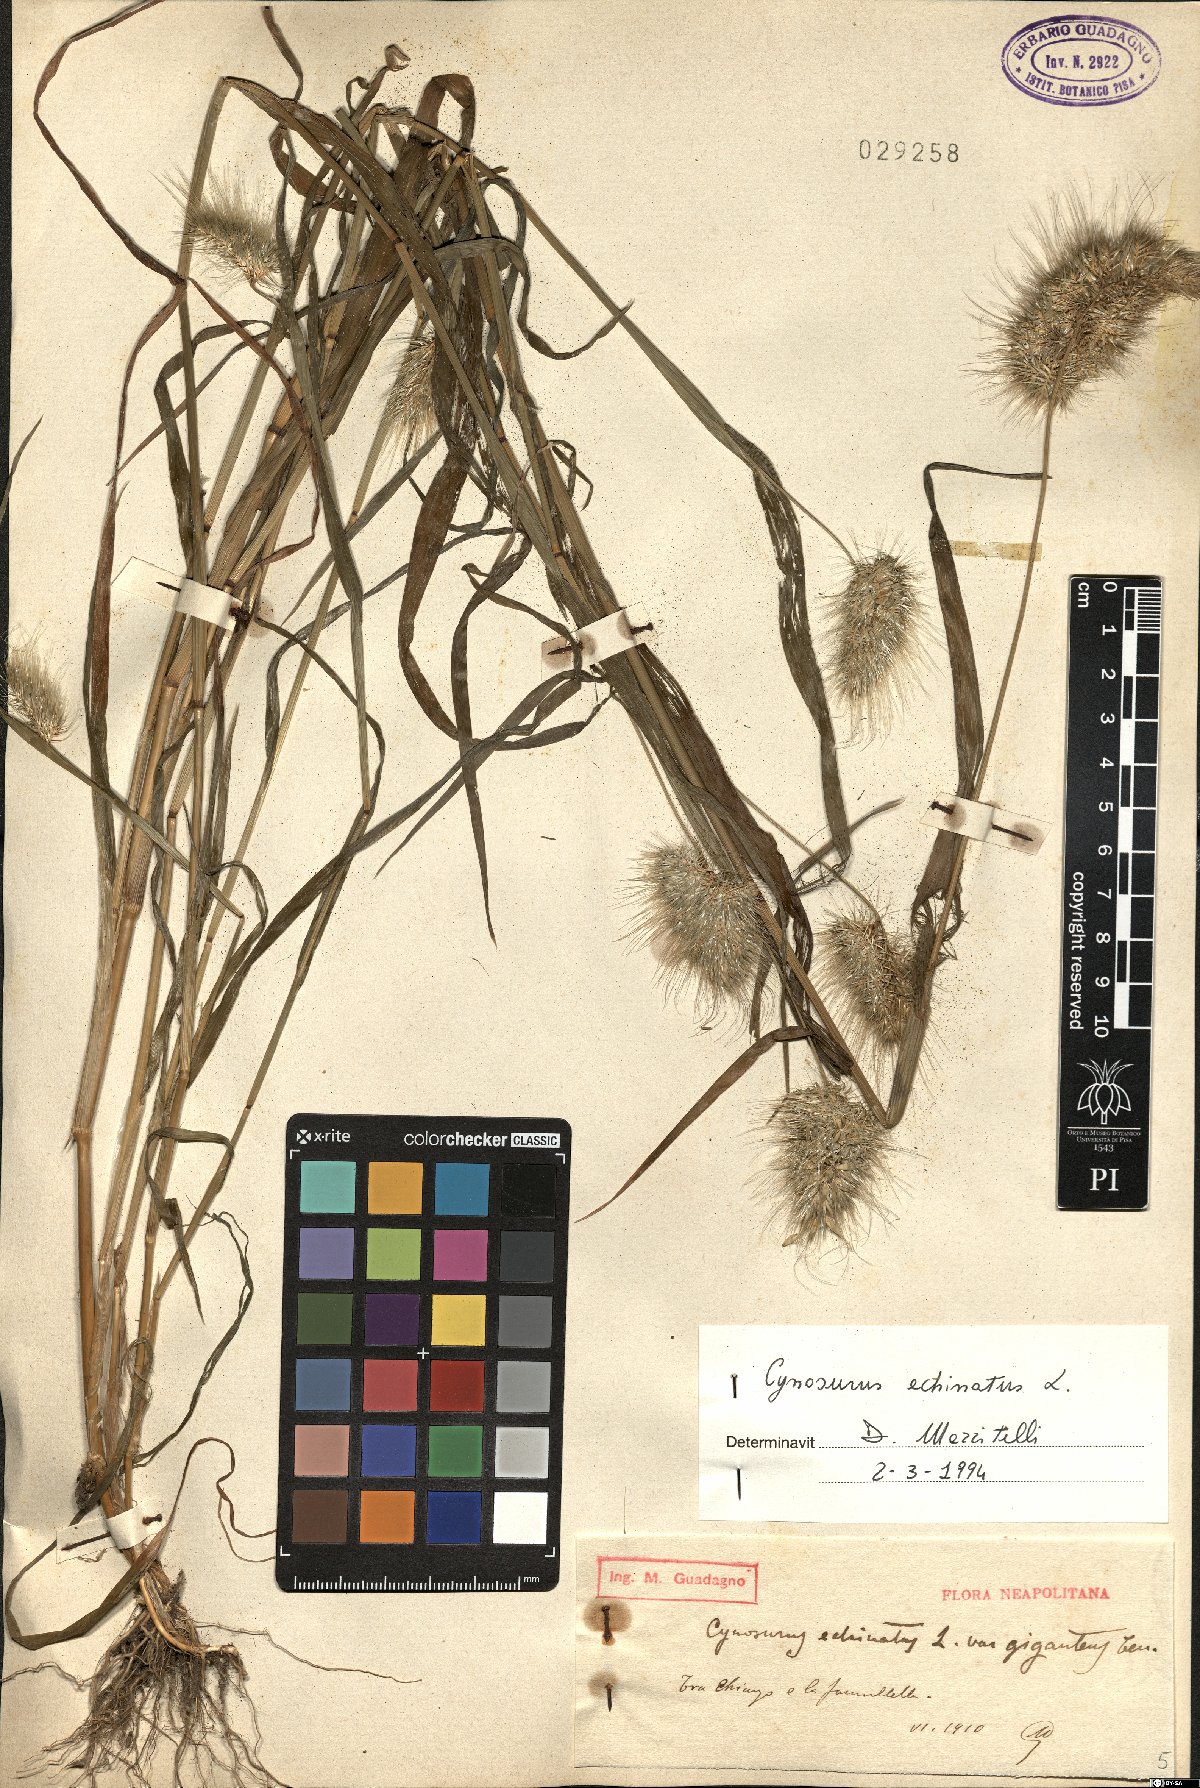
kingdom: Plantae
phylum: Tracheophyta
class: Liliopsida
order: Poales
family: Poaceae
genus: Cynosurus
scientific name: Cynosurus echinatus
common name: Rough dog's-tail
